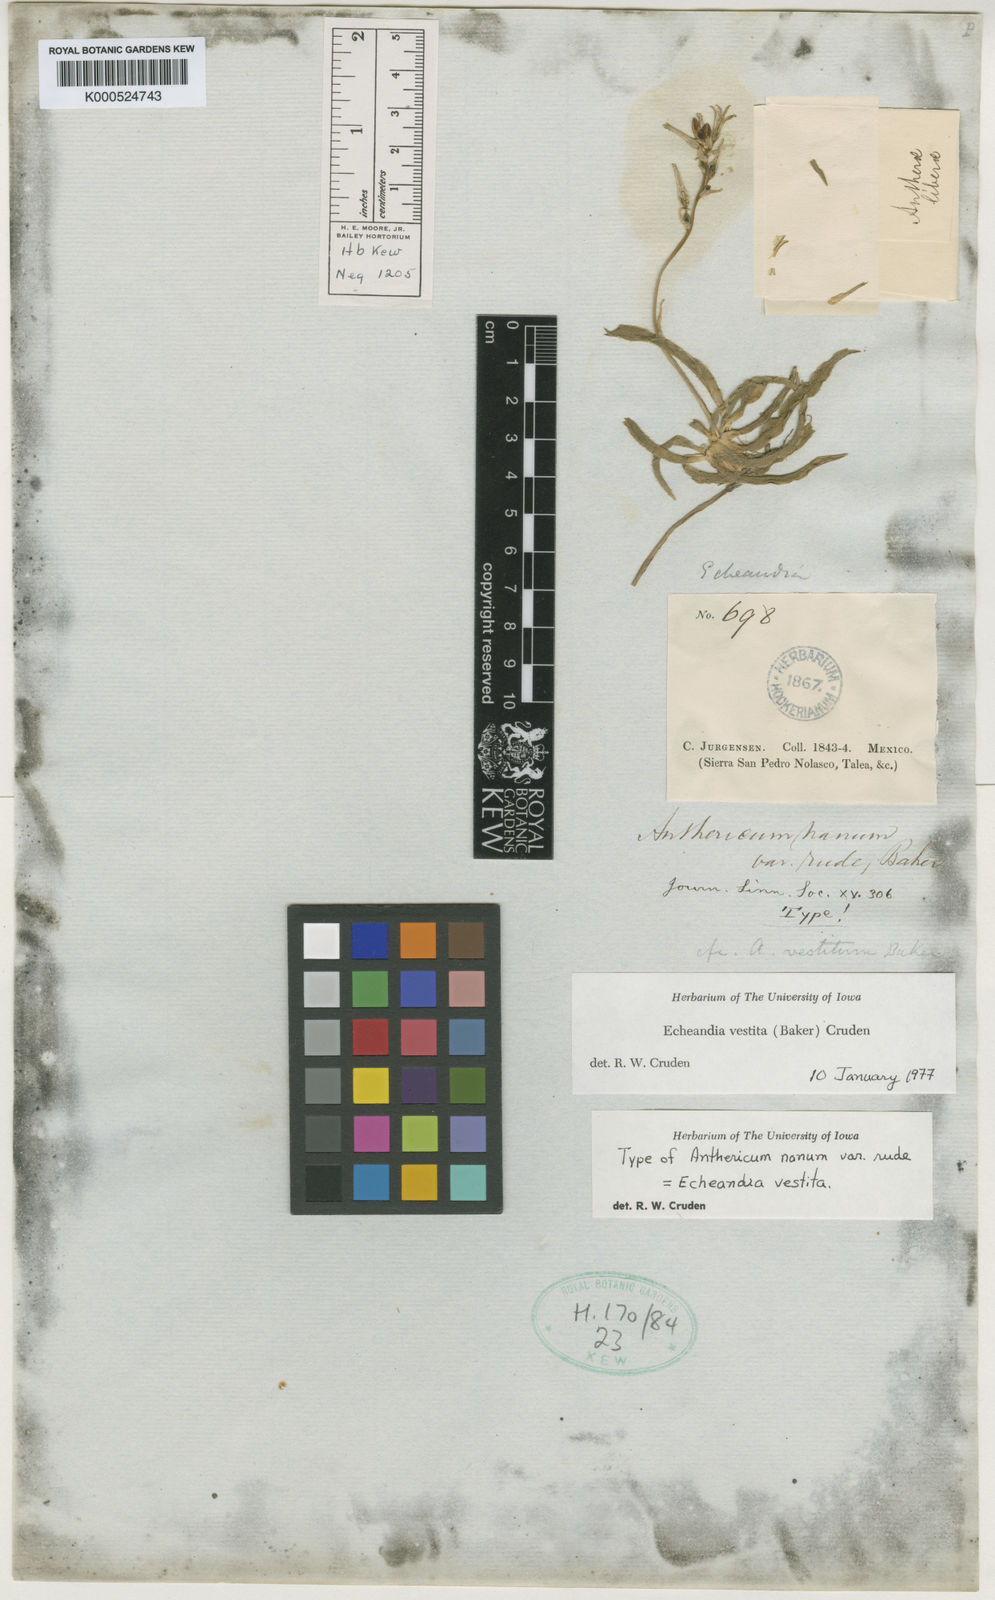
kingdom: Plantae
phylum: Tracheophyta
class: Liliopsida
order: Asparagales
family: Asparagaceae
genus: Echeandia
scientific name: Echeandia vestita
